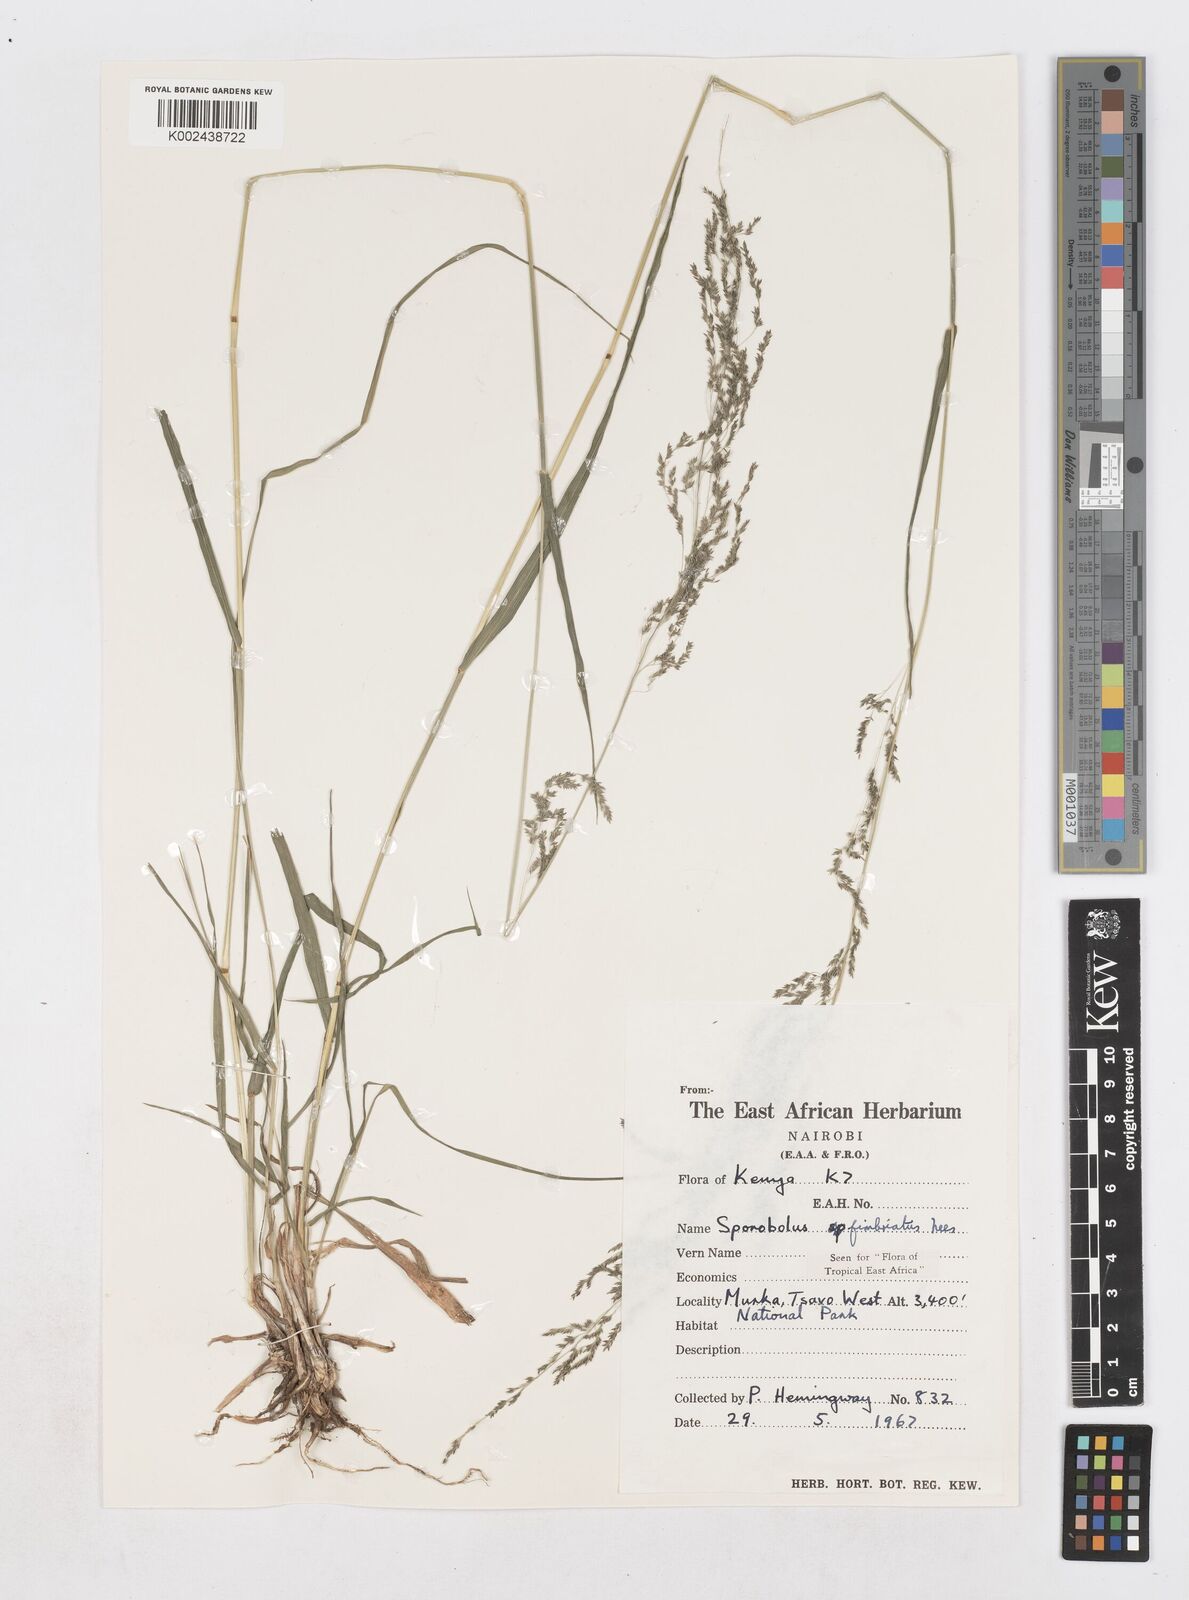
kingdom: Plantae
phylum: Tracheophyta
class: Liliopsida
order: Poales
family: Poaceae
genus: Sporobolus
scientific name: Sporobolus fimbriatus
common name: Fringed dropseed
